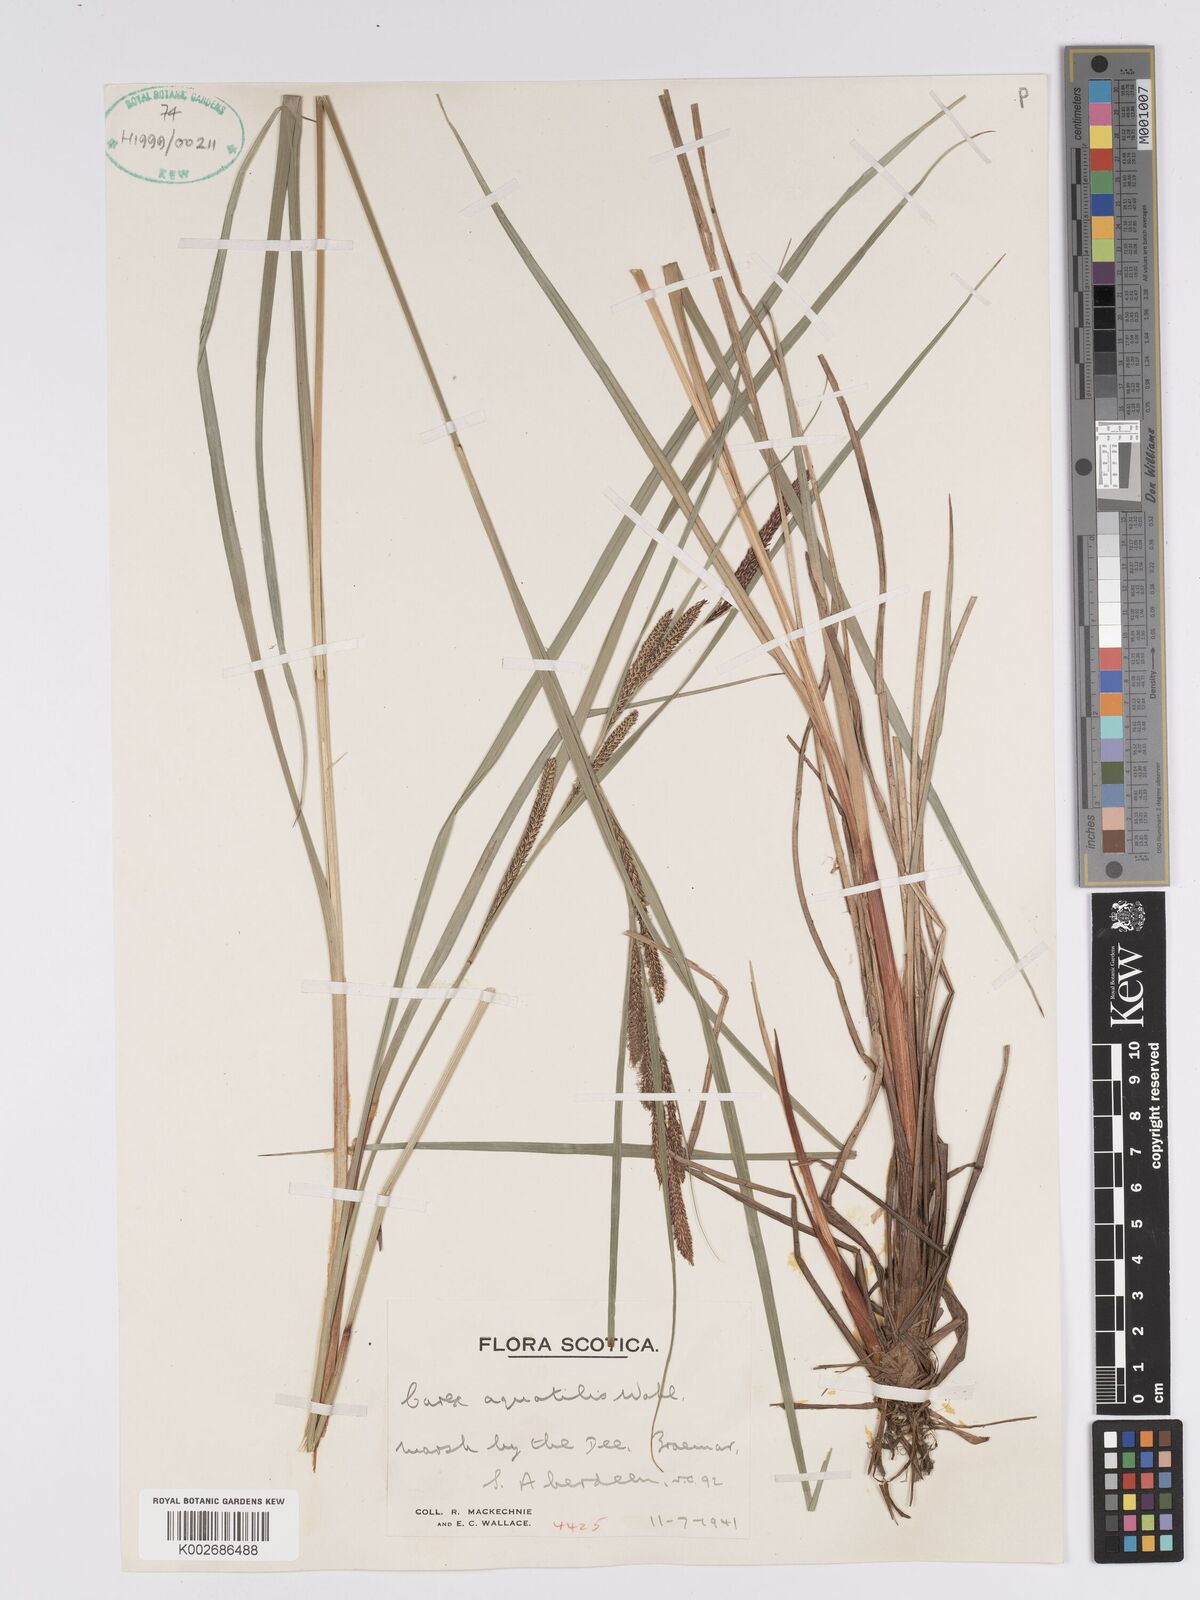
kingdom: Plantae
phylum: Tracheophyta
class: Liliopsida
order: Poales
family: Cyperaceae
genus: Carex
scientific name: Carex aquatilis
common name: Water sedge
